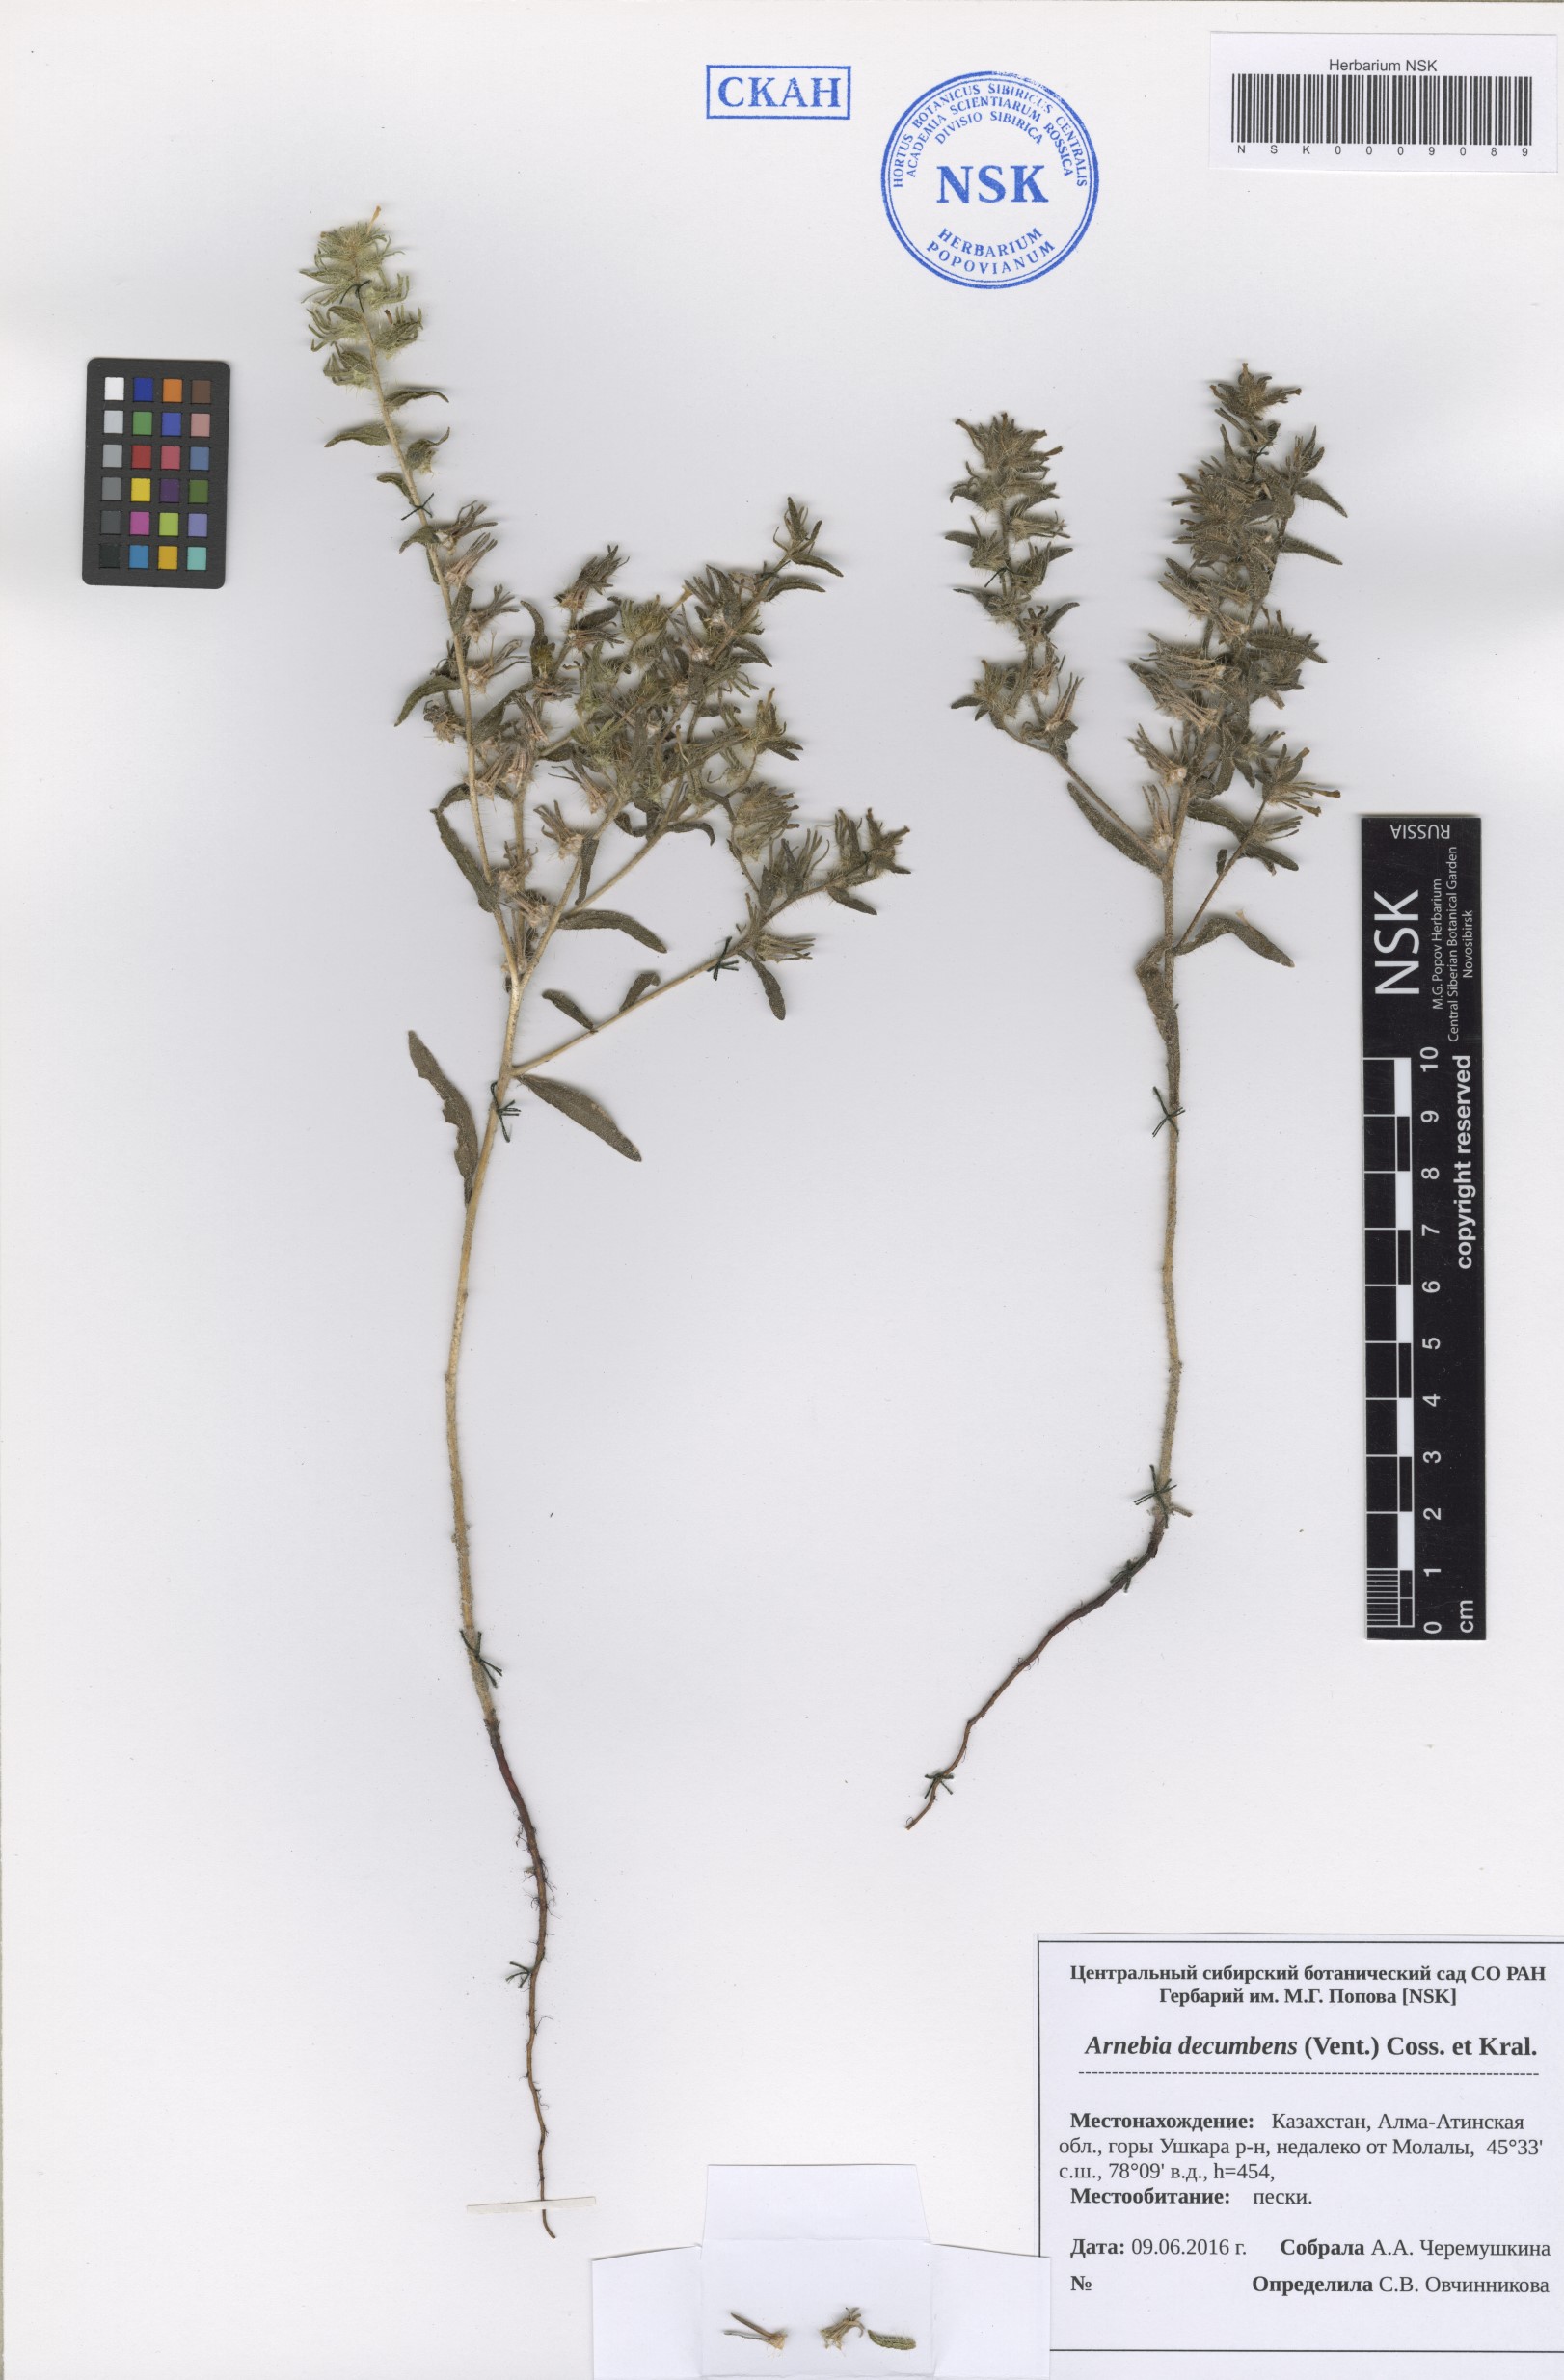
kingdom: Plantae
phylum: Tracheophyta
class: Magnoliopsida
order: Boraginales
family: Boraginaceae
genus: Arnebia
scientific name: Arnebia decumbens
